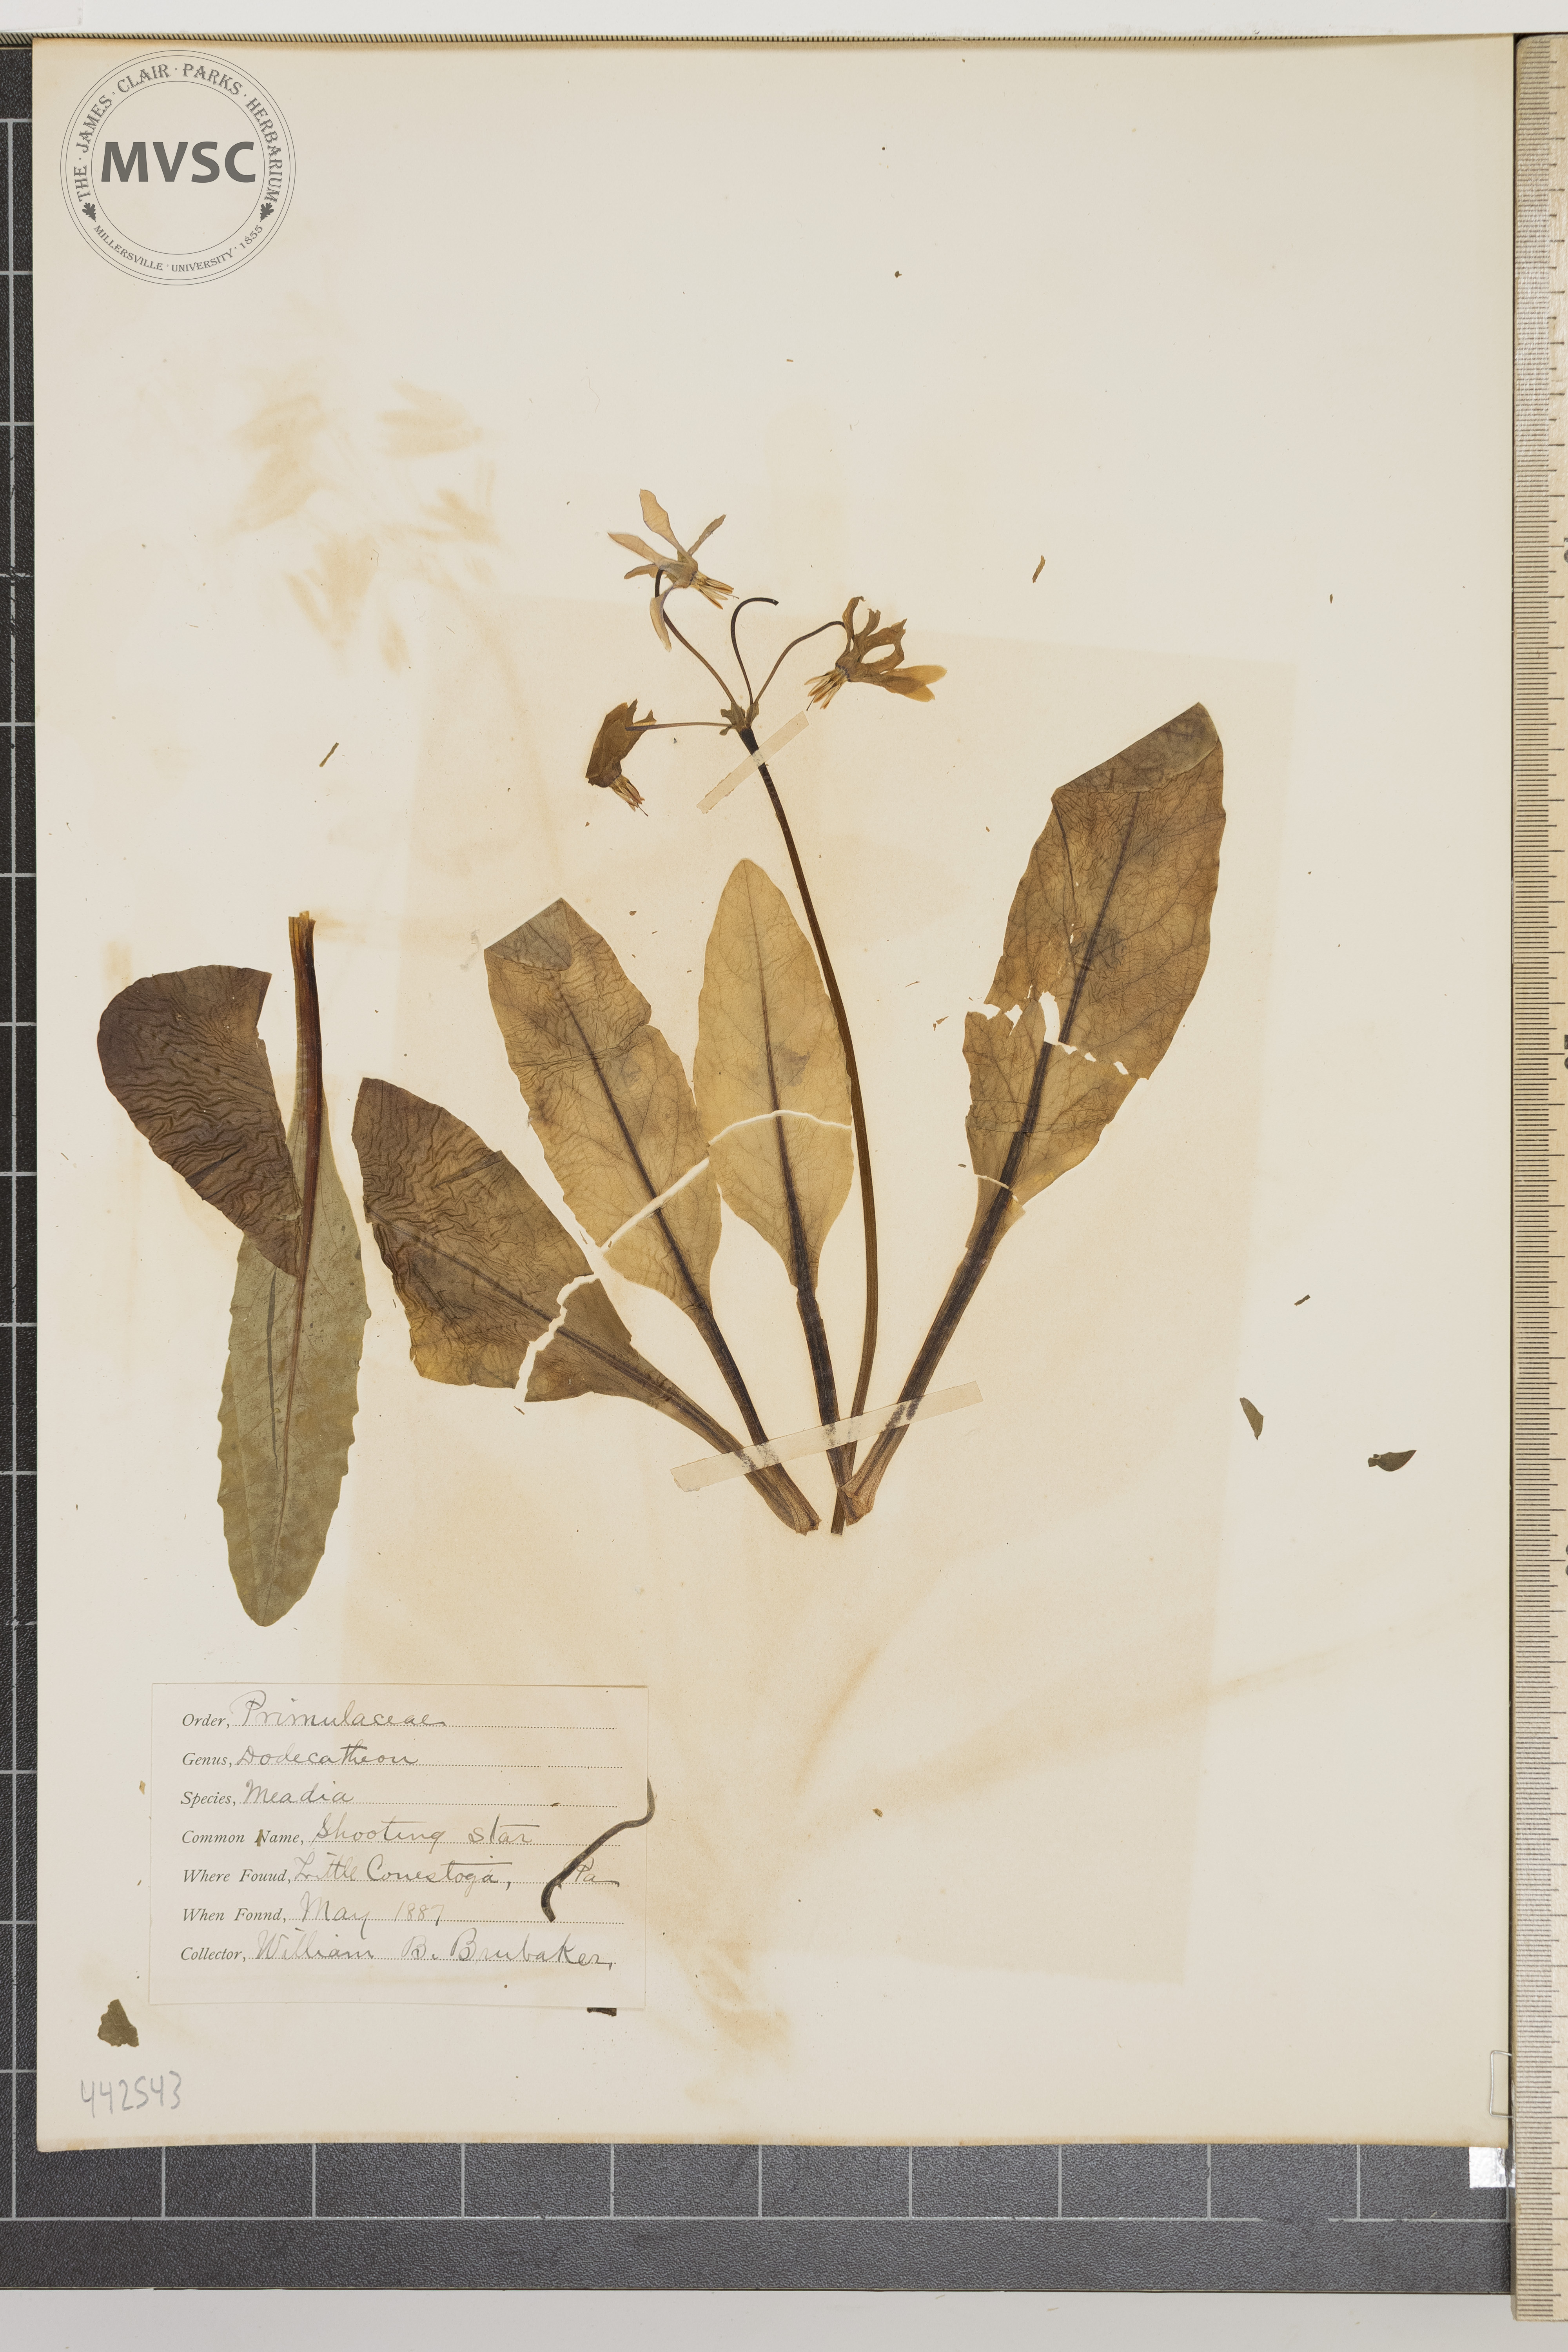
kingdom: Plantae
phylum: Tracheophyta
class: Magnoliopsida
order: Ericales
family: Primulaceae
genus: Dodecatheon
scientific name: Dodecatheon meadia
